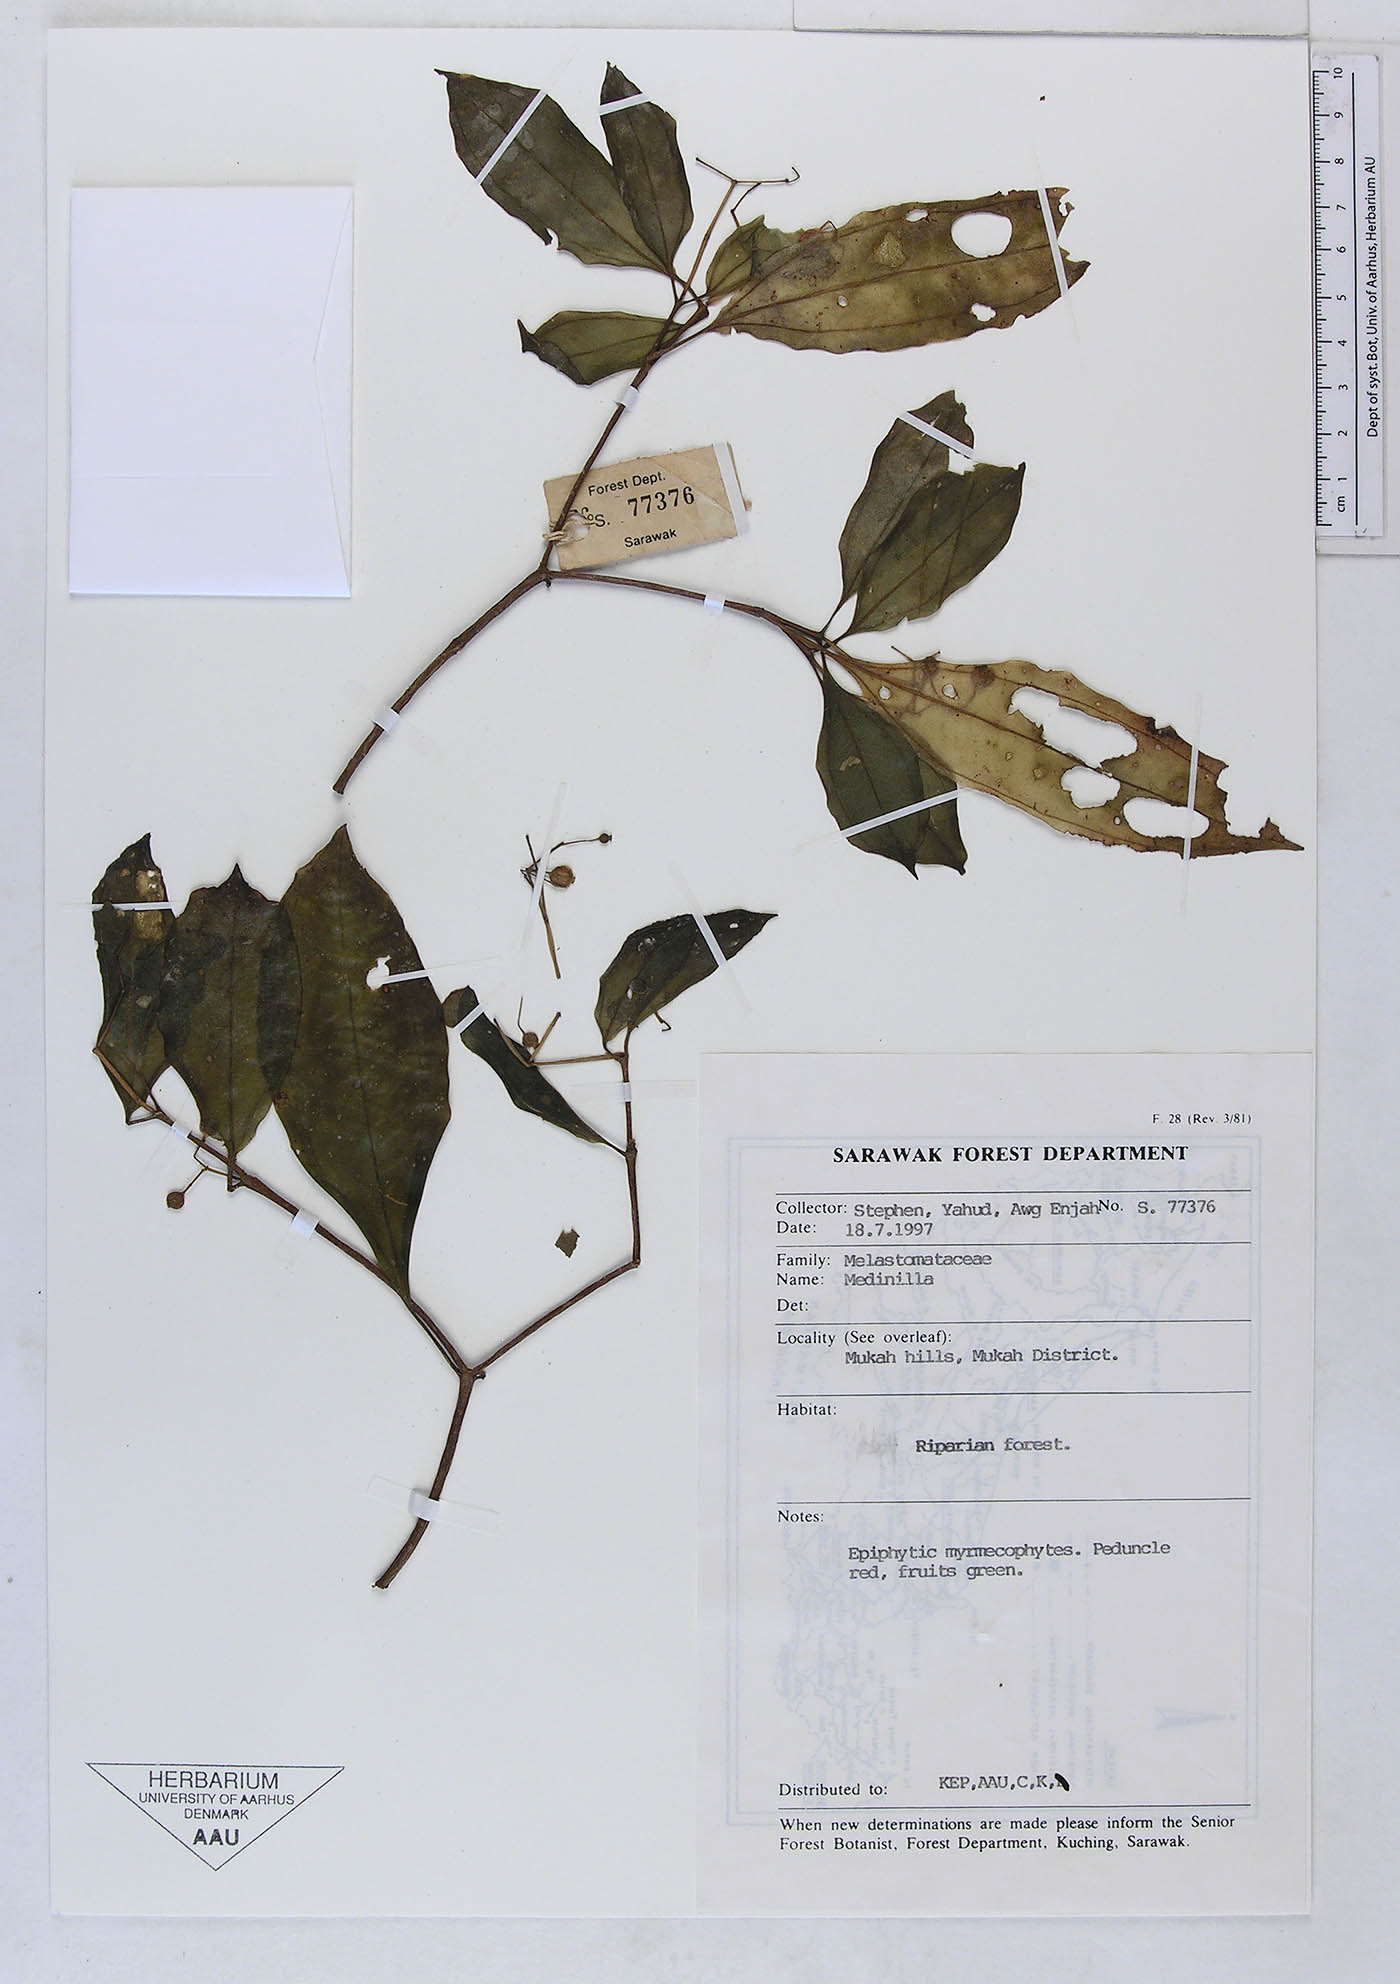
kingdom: Plantae
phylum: Tracheophyta
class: Magnoliopsida
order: Myrtales
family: Melastomataceae
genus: Medinilla
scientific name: Medinilla
